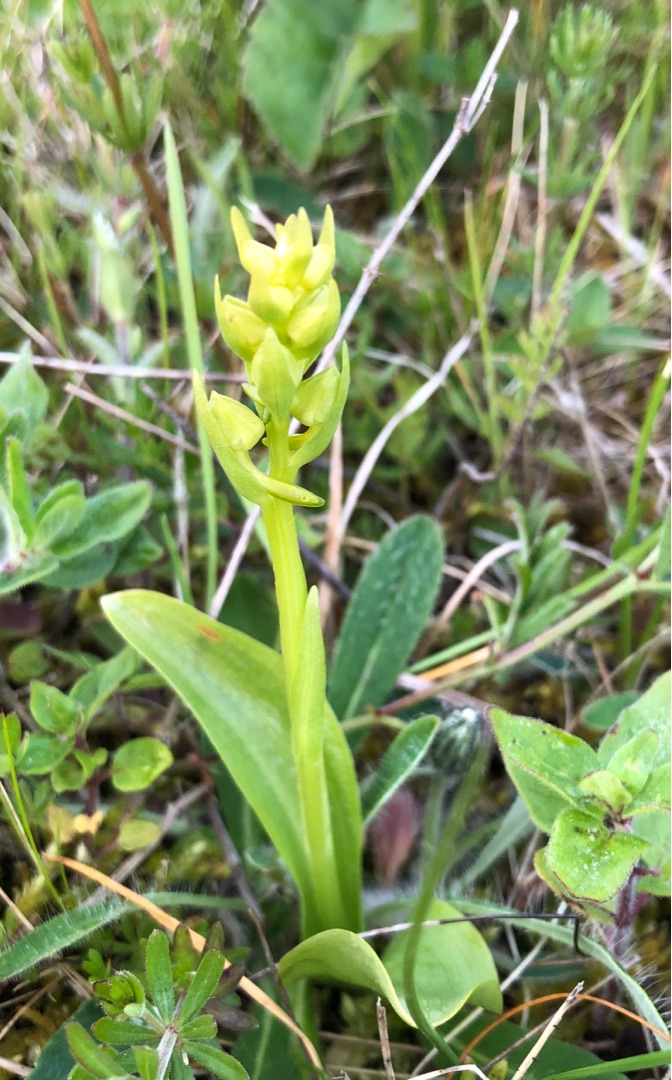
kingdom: Plantae
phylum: Tracheophyta
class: Liliopsida
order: Asparagales
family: Orchidaceae
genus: Platanthera
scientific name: Platanthera chlorantha
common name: Skov-gøgelilje
